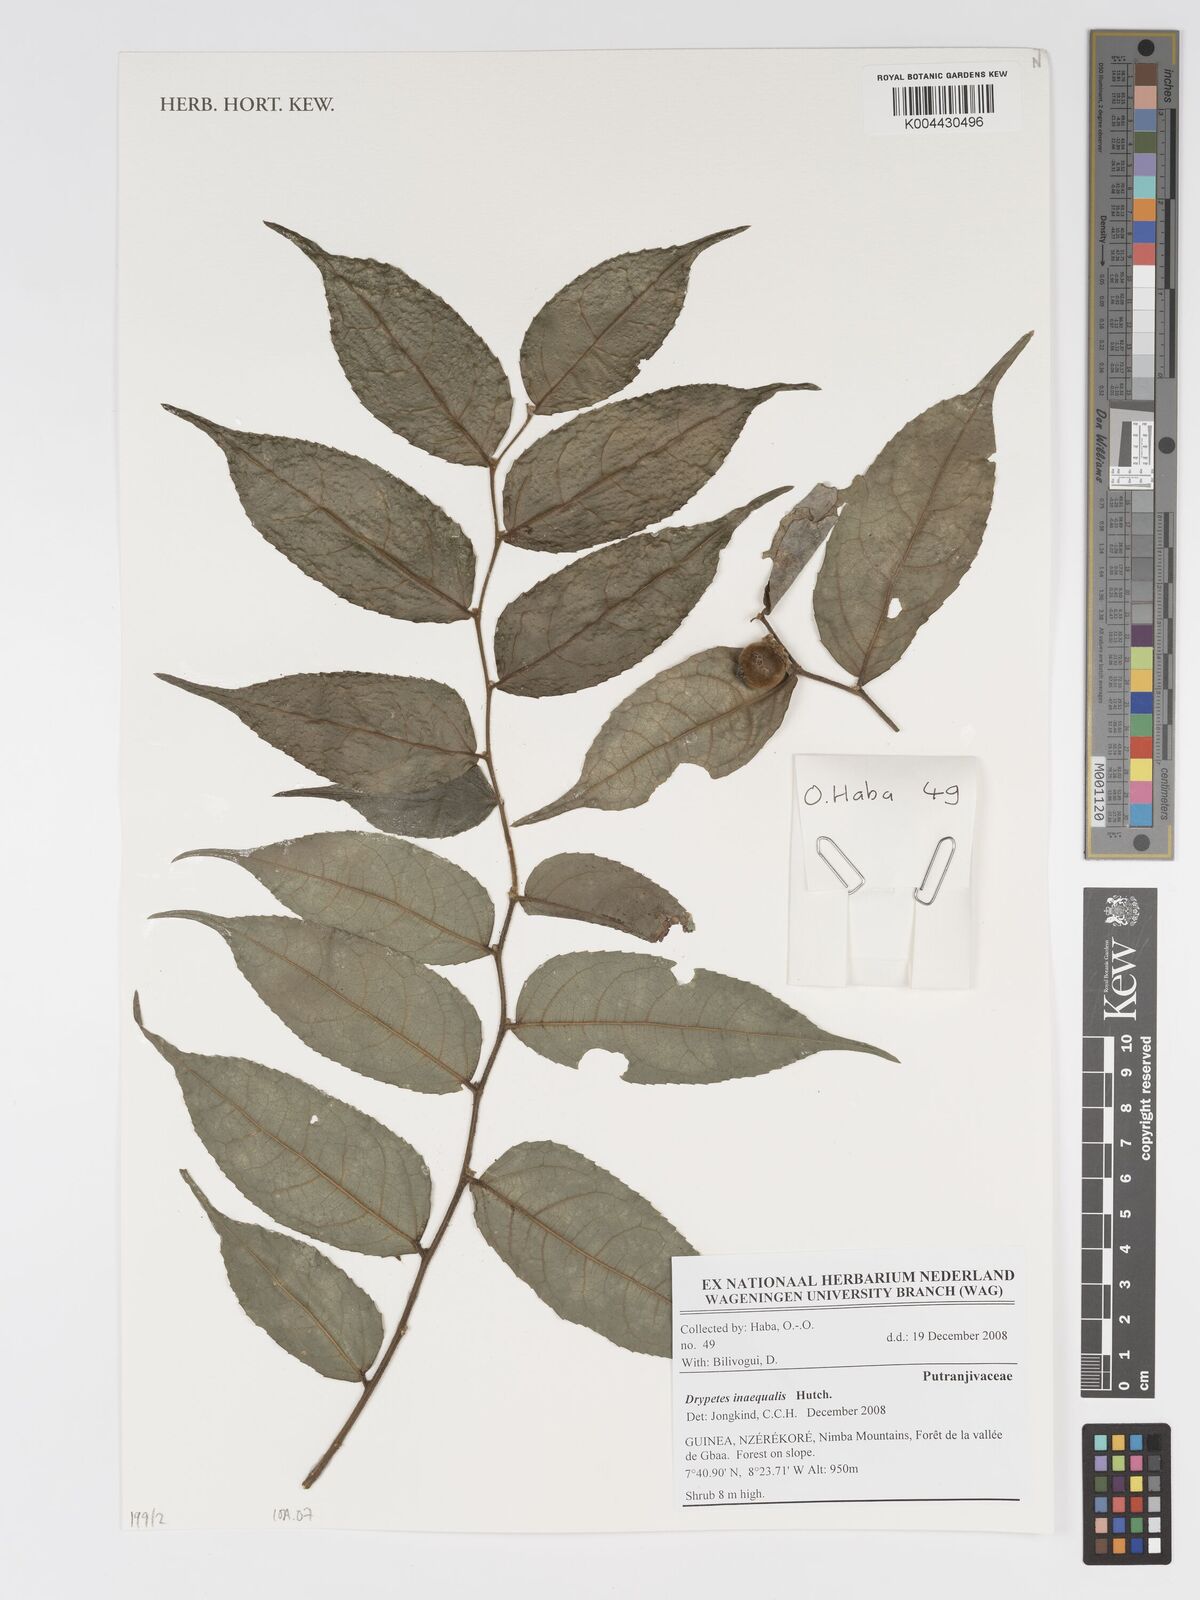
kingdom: Plantae
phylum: Tracheophyta
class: Magnoliopsida
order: Malpighiales
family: Putranjivaceae
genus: Drypetes
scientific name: Drypetes inaequalis
